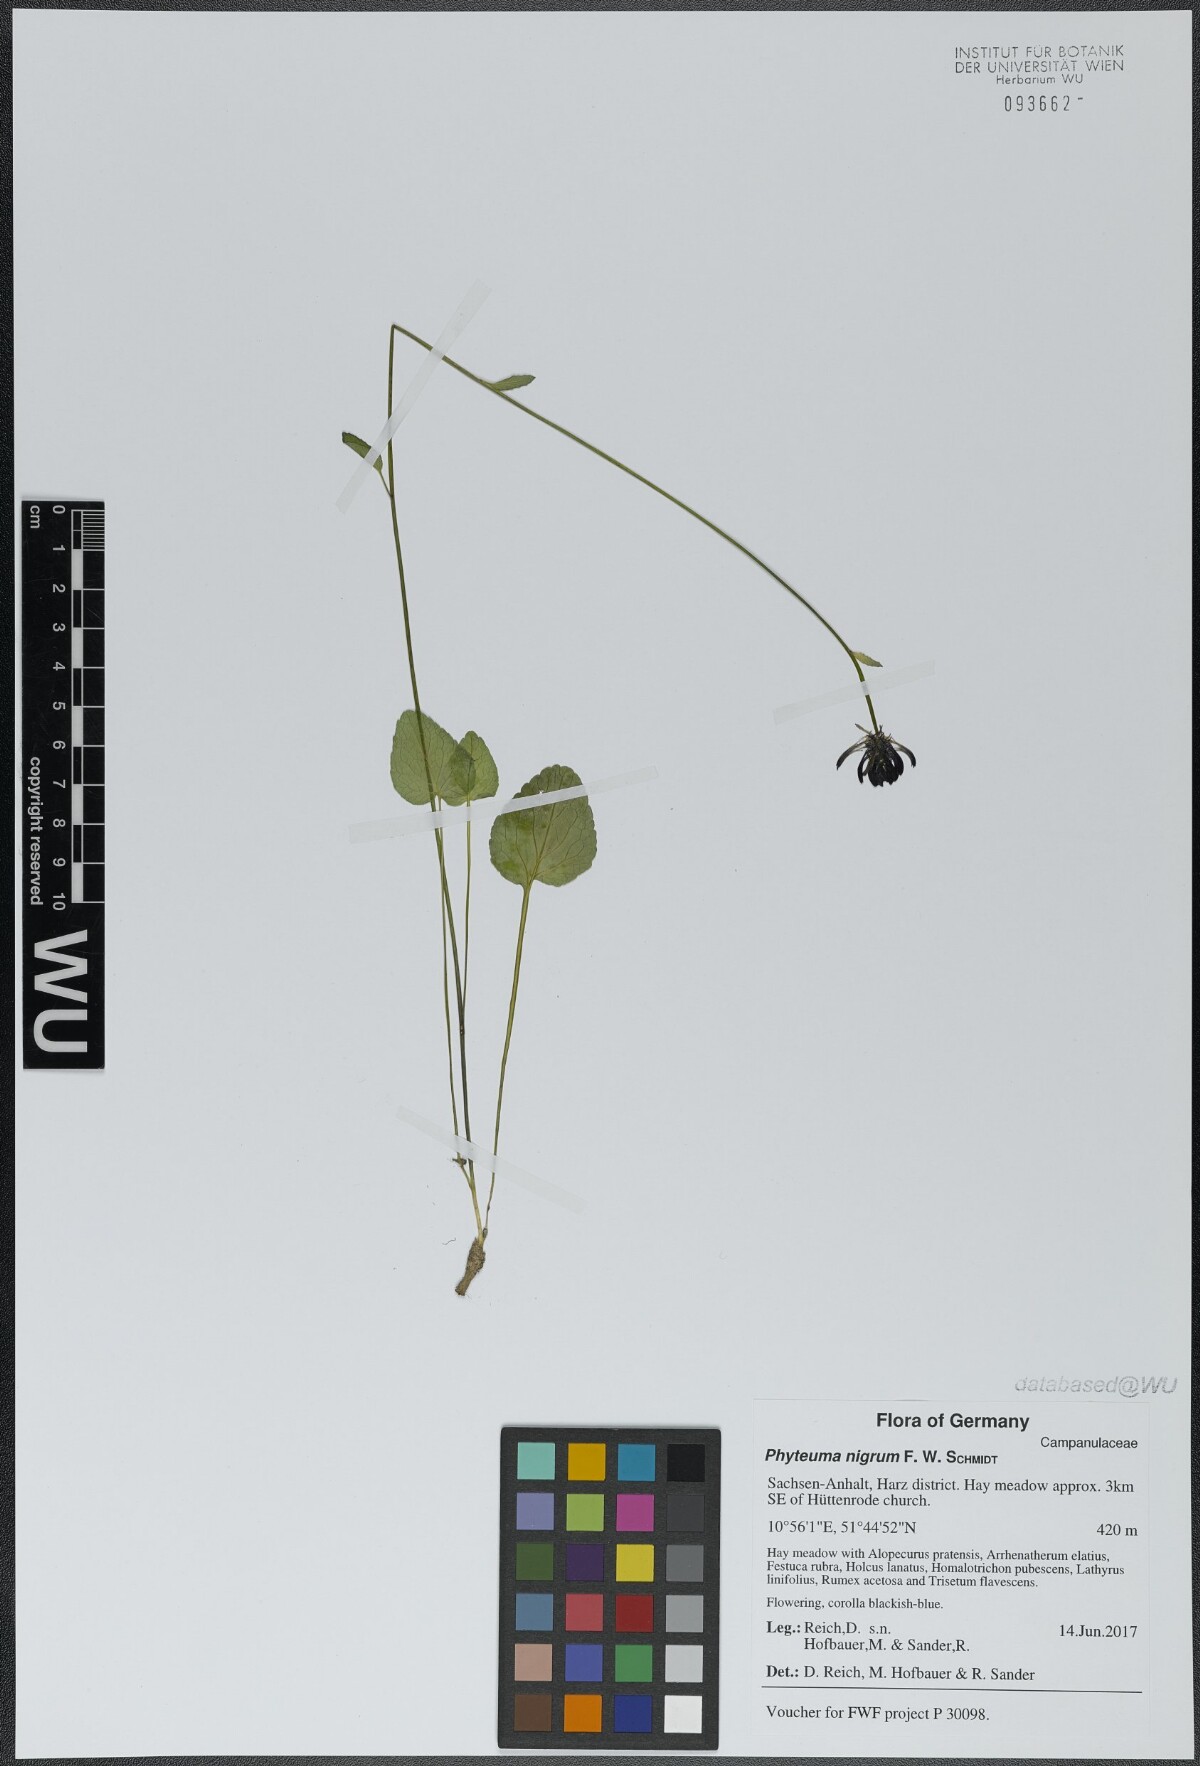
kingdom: Plantae
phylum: Tracheophyta
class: Magnoliopsida
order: Asterales
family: Campanulaceae
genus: Phyteuma
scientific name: Phyteuma nigrum
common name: Black rampion
